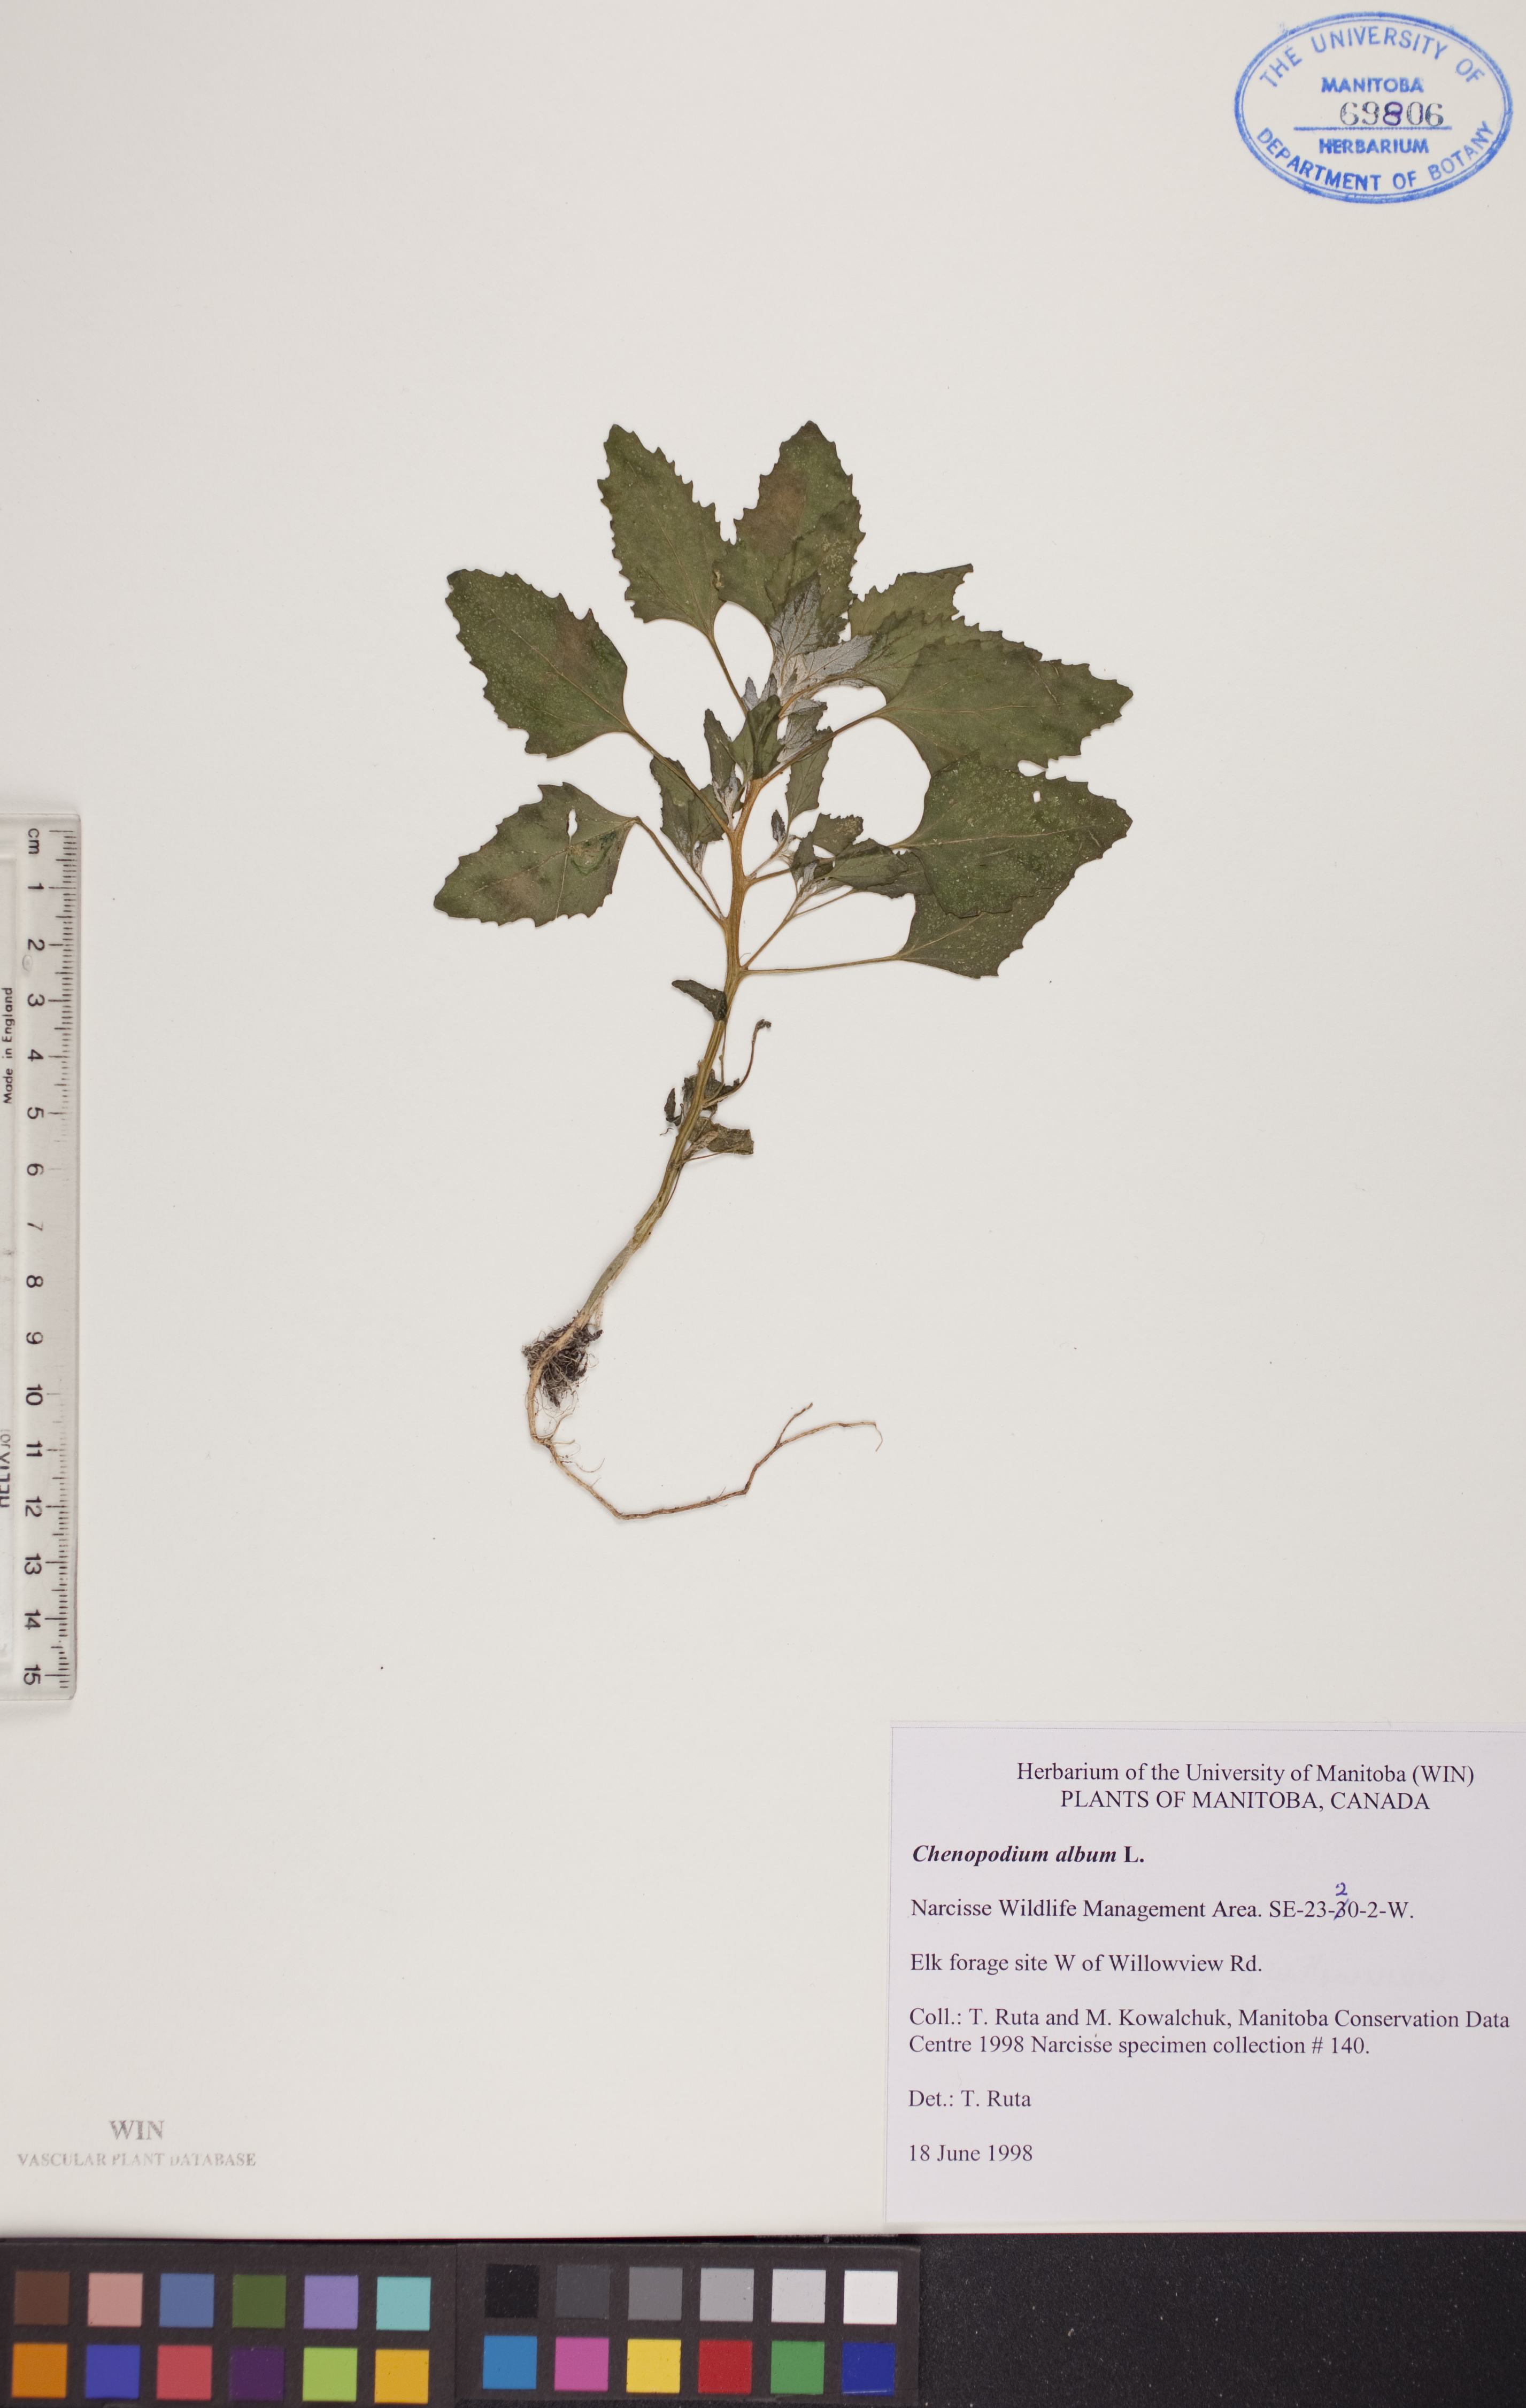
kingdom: Plantae
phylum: Tracheophyta
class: Magnoliopsida
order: Caryophyllales
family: Amaranthaceae
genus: Chenopodium
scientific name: Chenopodium album
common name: Fat-hen
